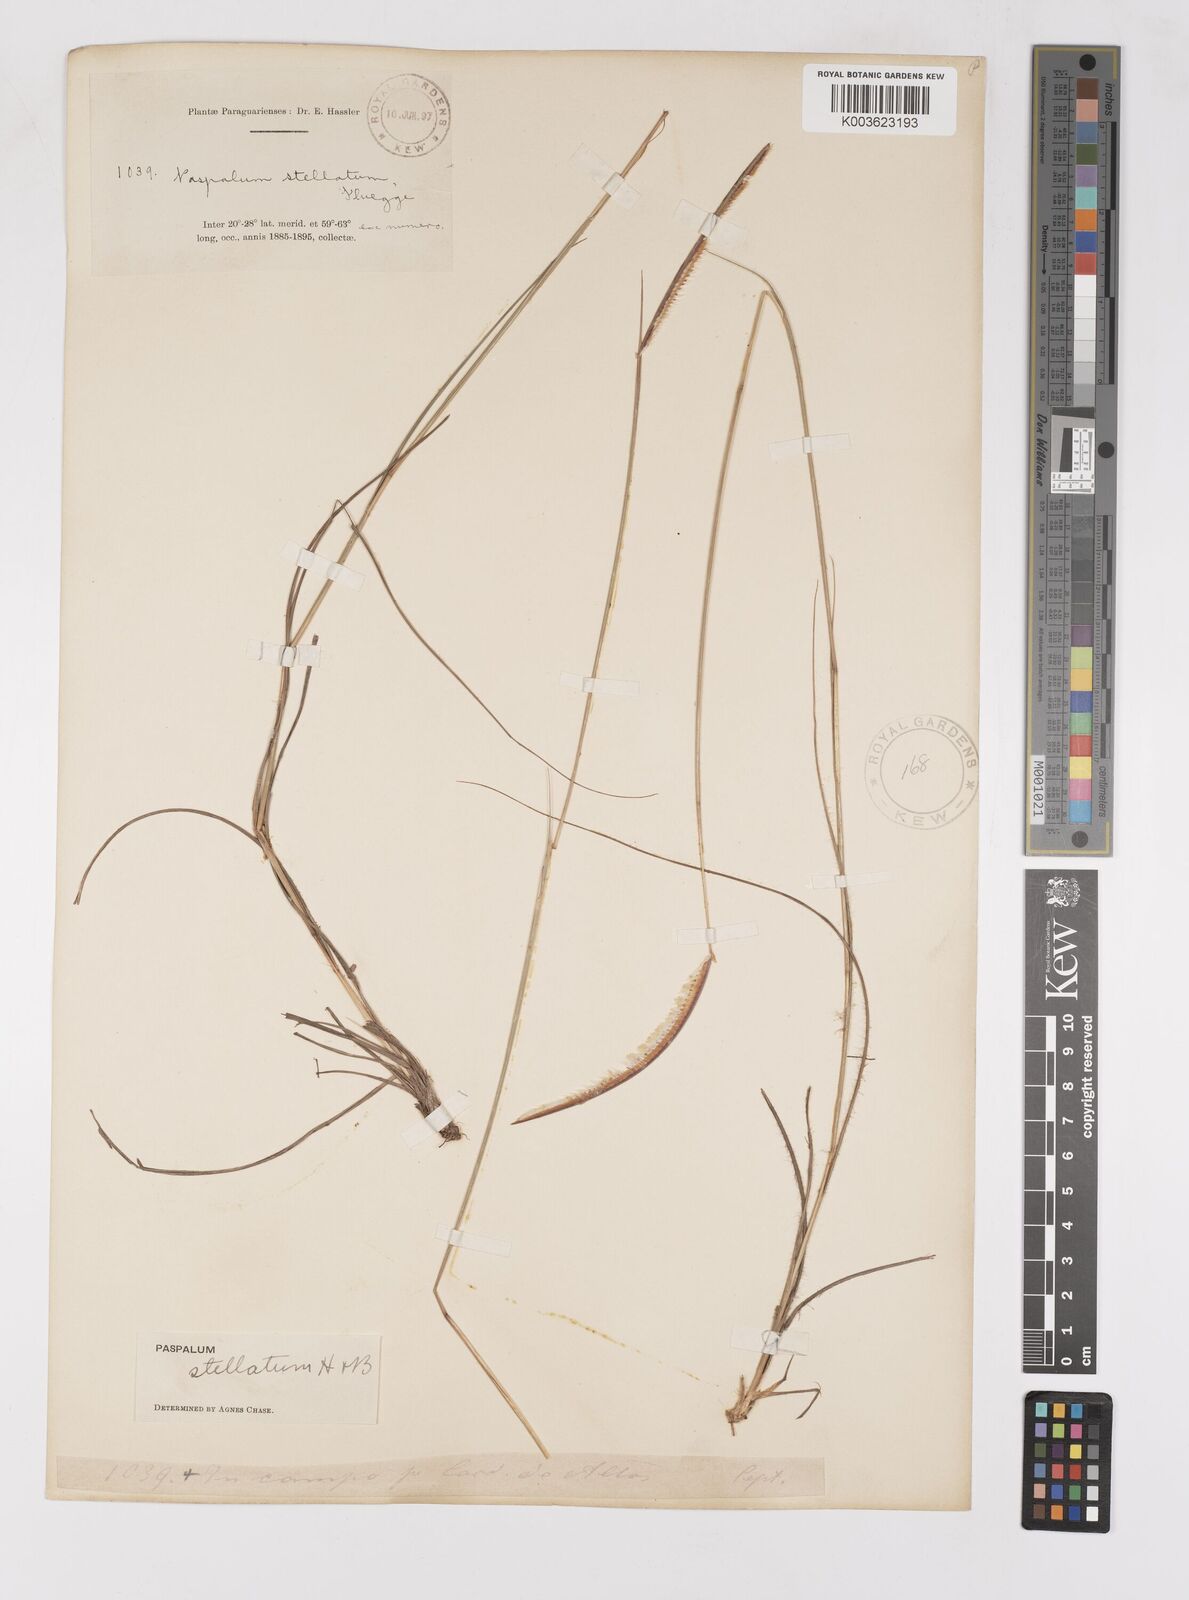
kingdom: Plantae
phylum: Tracheophyta
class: Liliopsida
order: Poales
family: Poaceae
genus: Paspalum
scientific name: Paspalum stellatum
